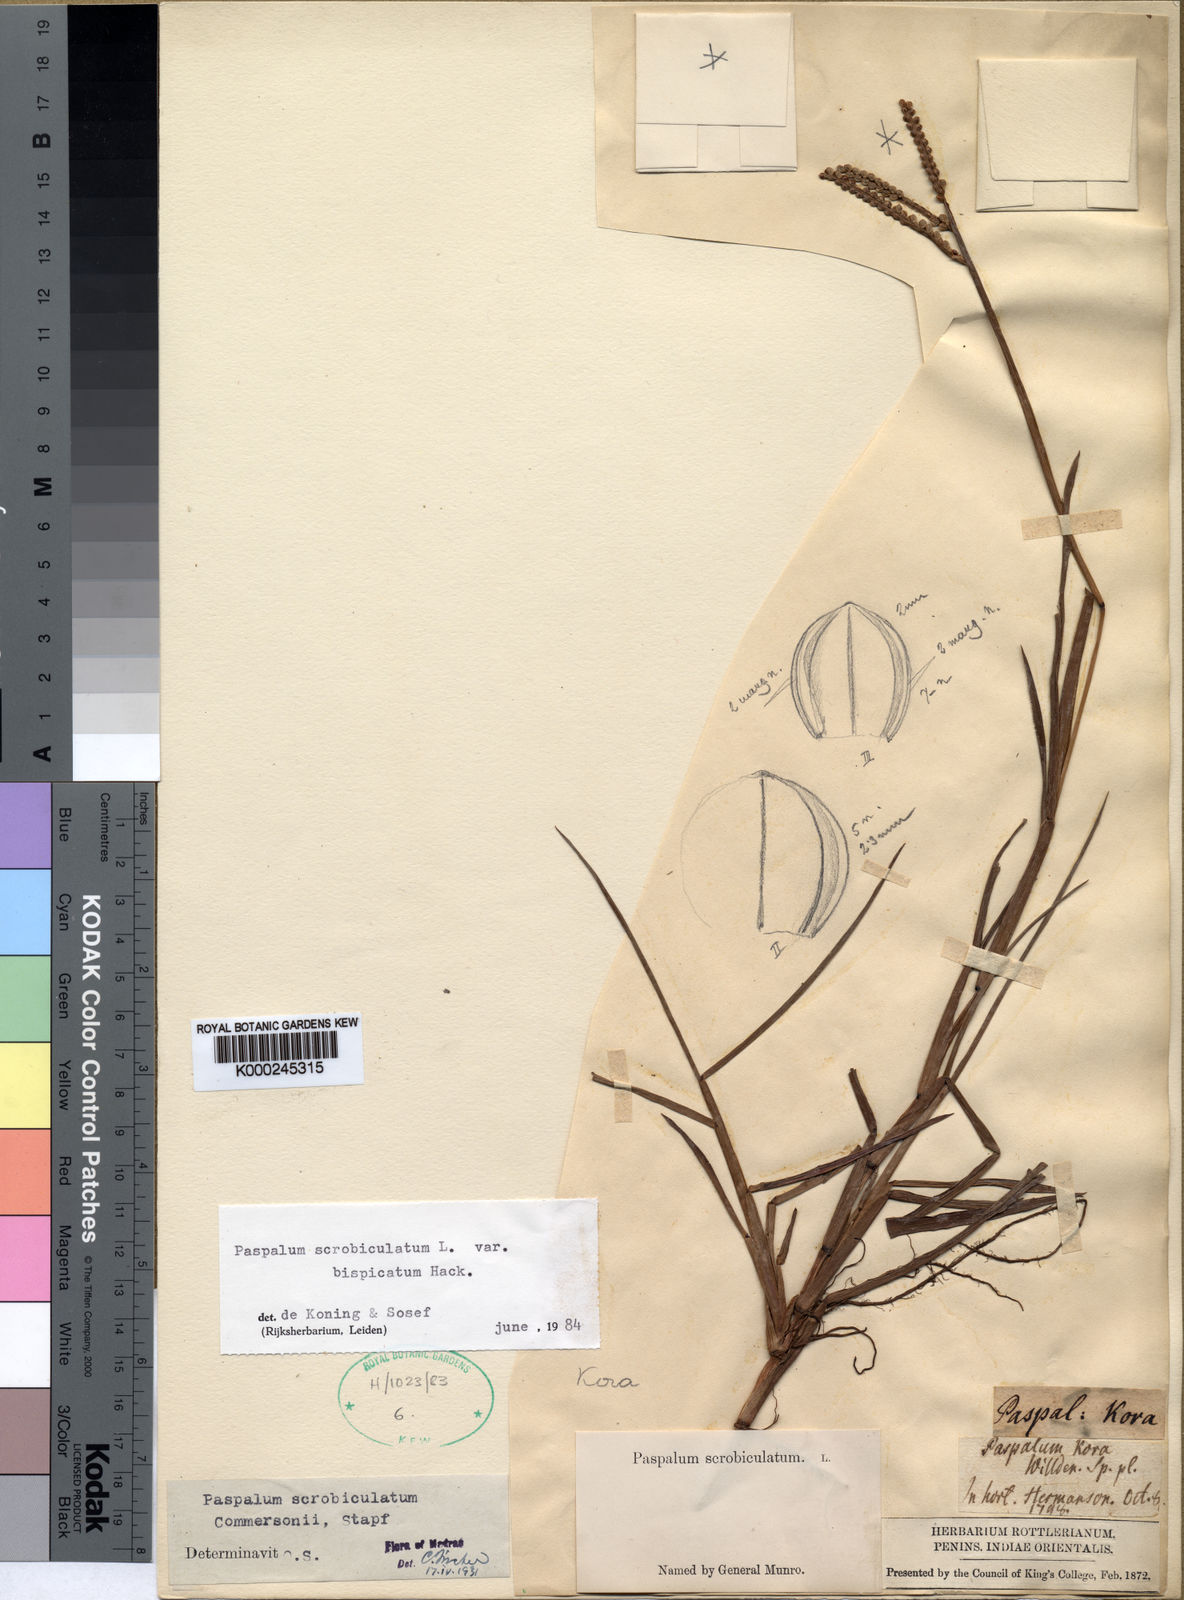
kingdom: Plantae
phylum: Tracheophyta
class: Liliopsida
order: Poales
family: Poaceae
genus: Paspalum
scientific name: Paspalum scrobiculatum
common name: Kodo millet
